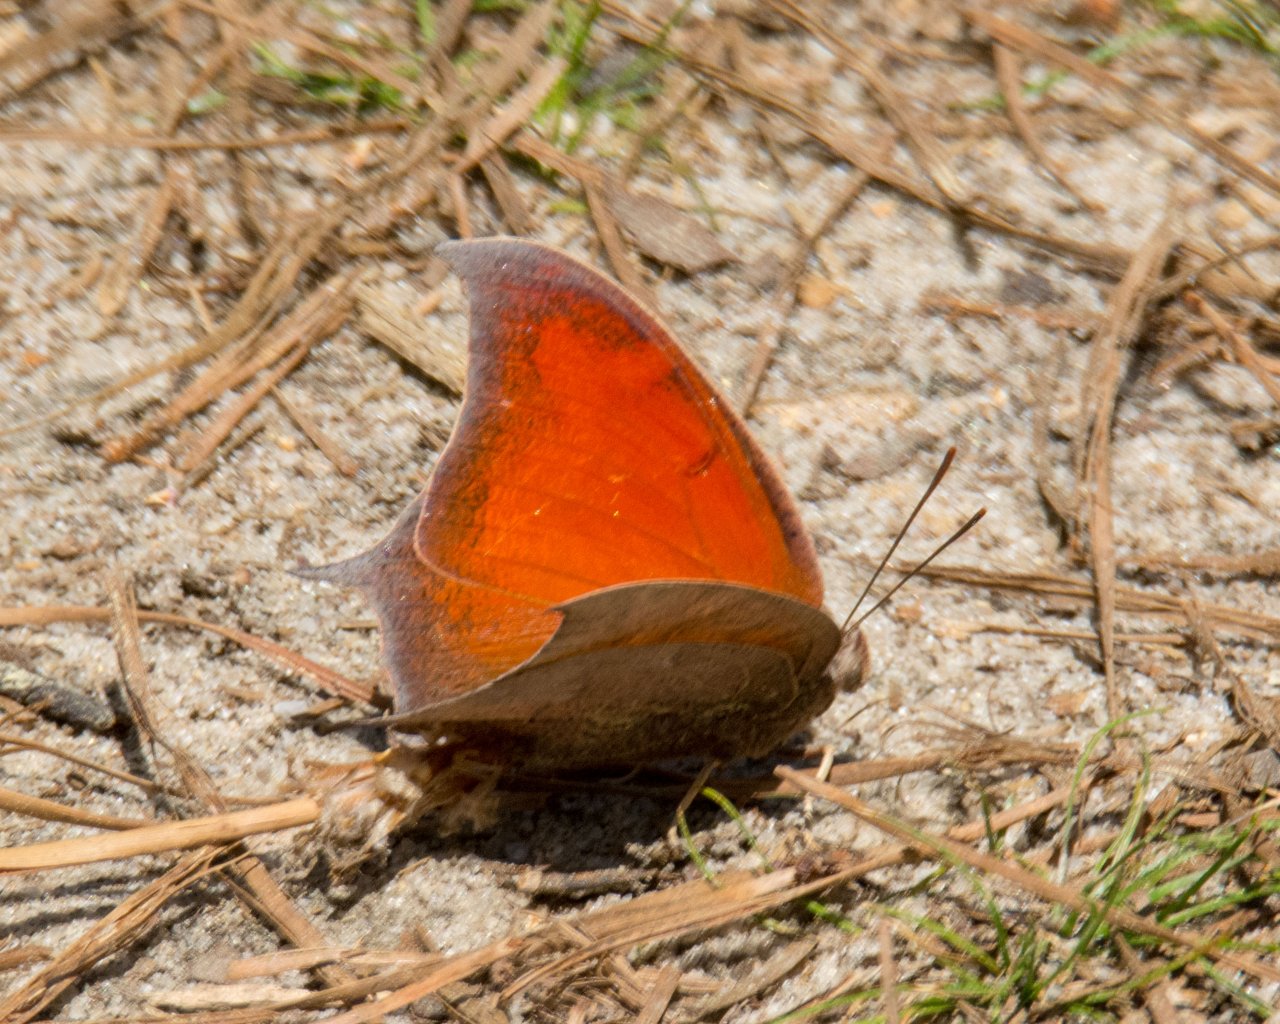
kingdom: Animalia
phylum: Arthropoda
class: Insecta
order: Lepidoptera
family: Nymphalidae
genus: Anaea
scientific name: Anaea andria
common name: Goatweed Leafwing
